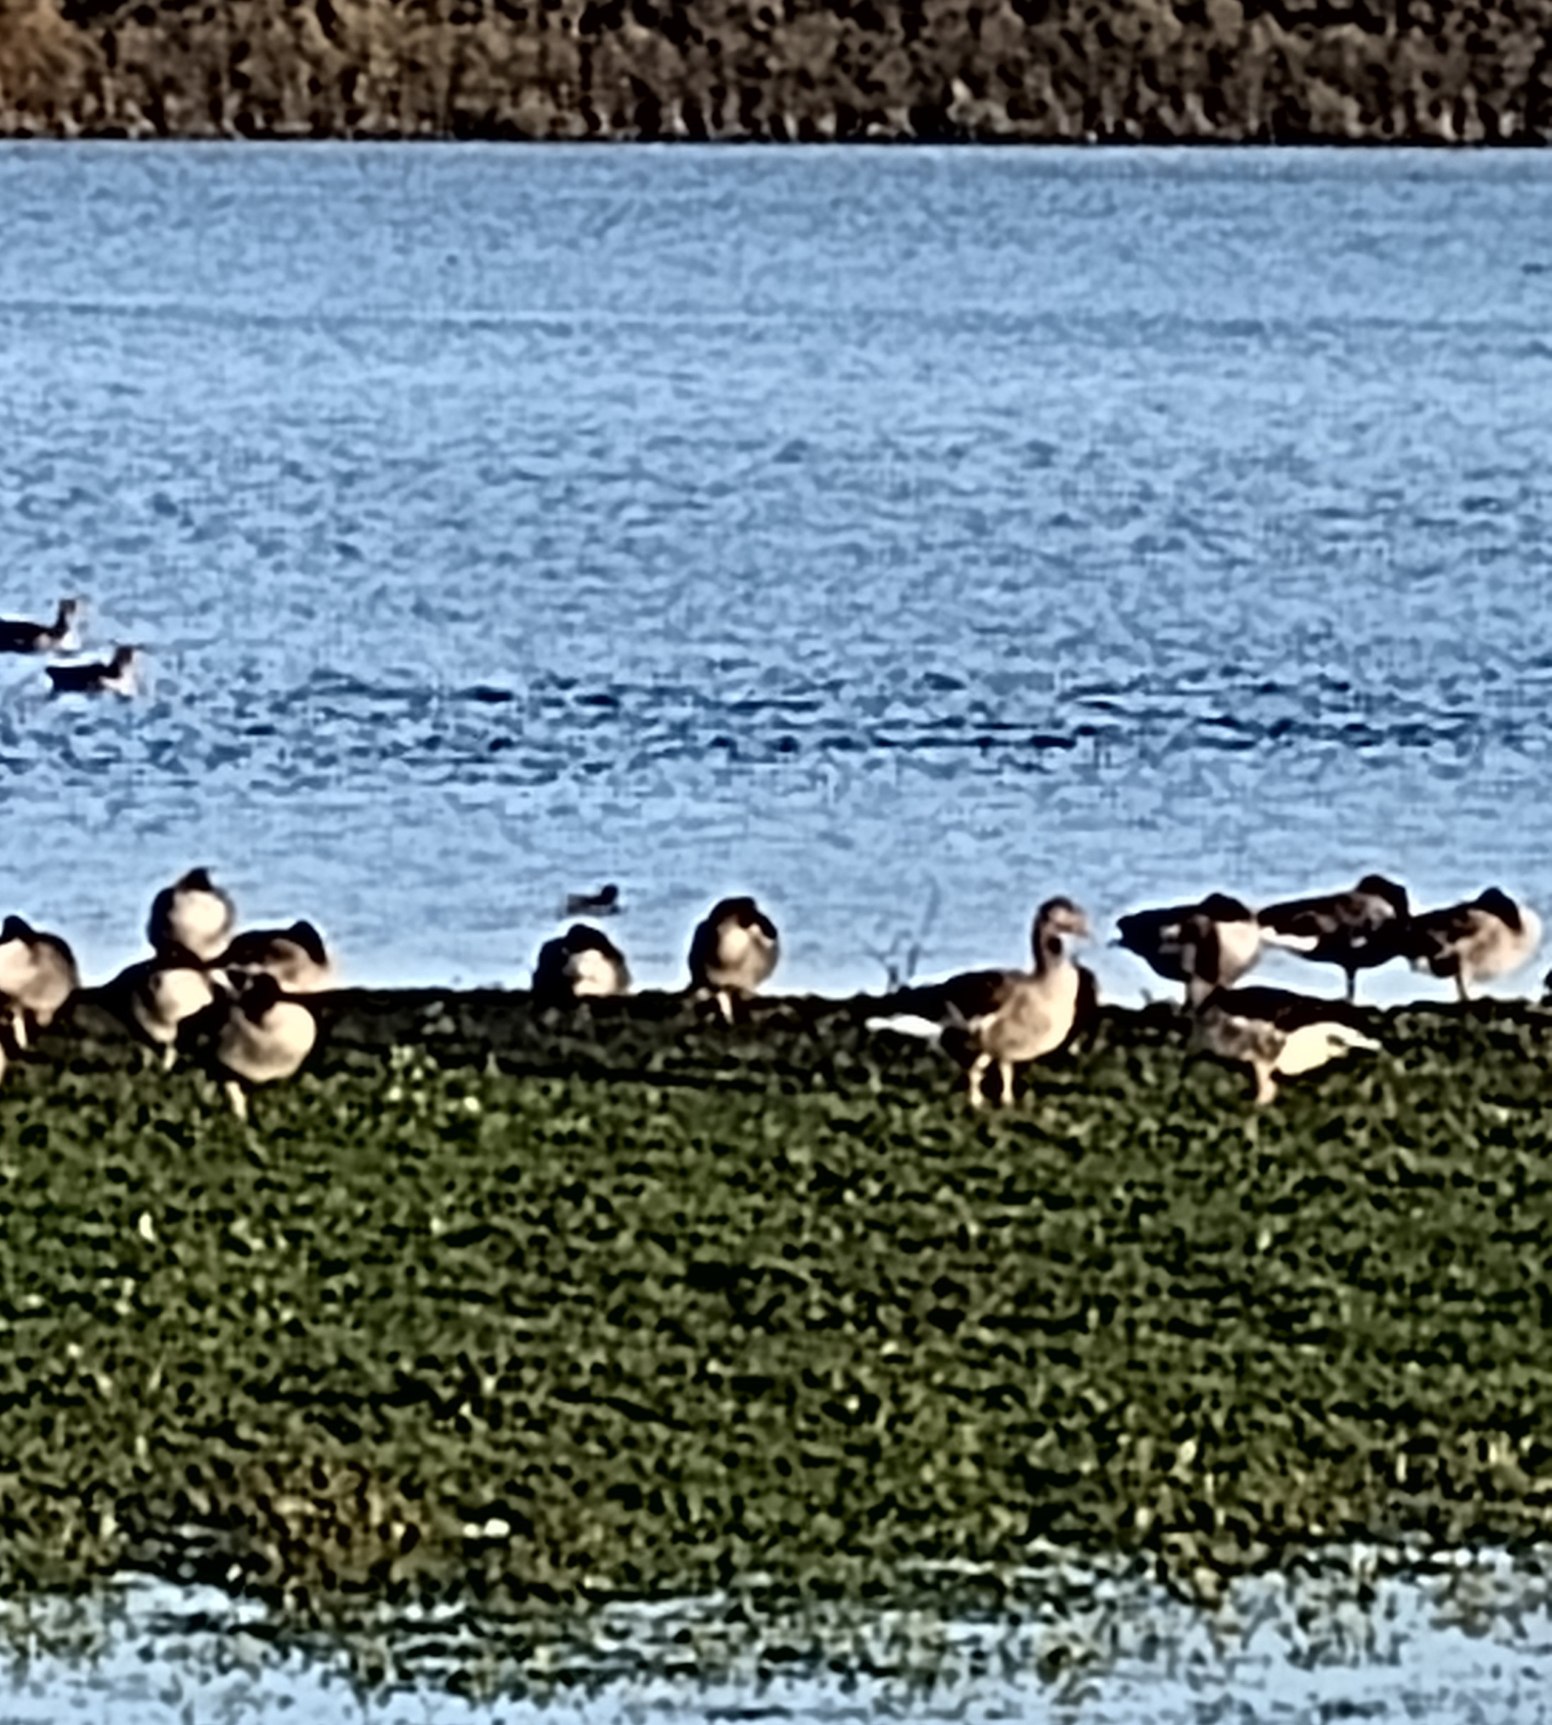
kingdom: Animalia
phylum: Chordata
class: Aves
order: Anseriformes
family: Anatidae
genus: Anser
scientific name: Anser anser
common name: Grågås
